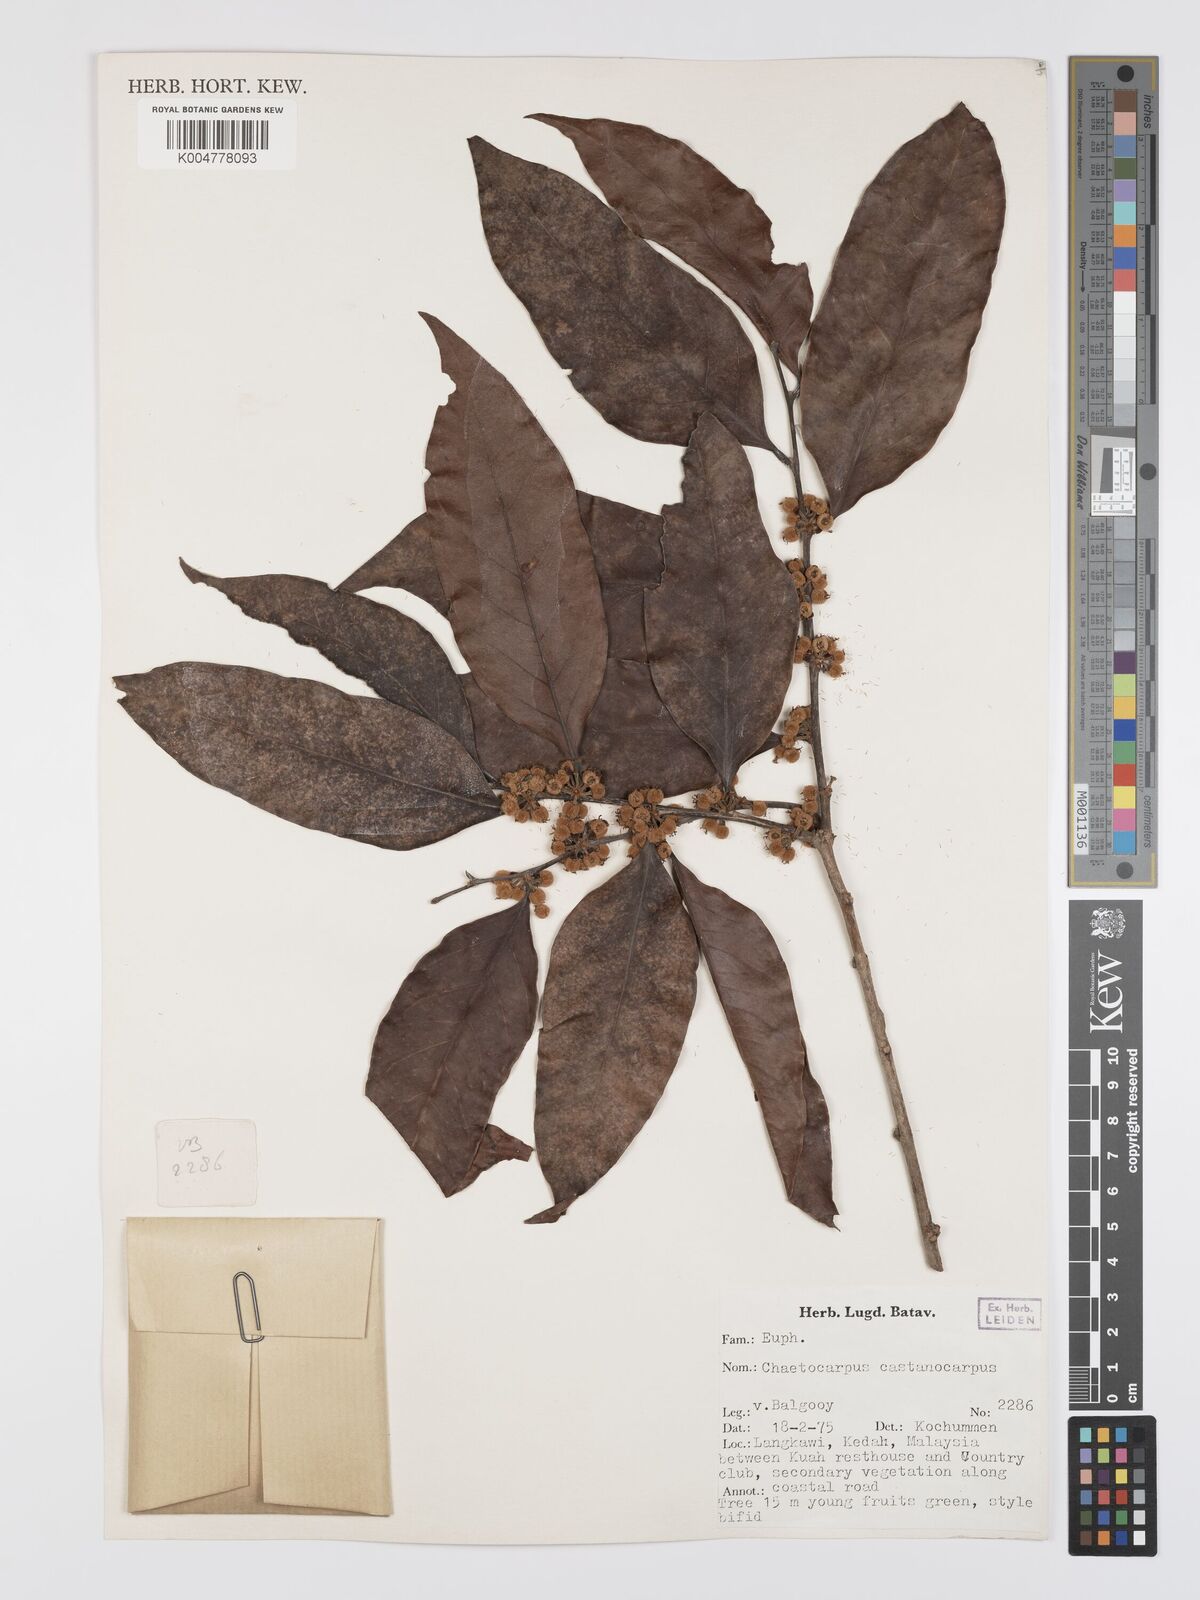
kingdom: Plantae
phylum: Tracheophyta
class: Magnoliopsida
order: Malpighiales
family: Peraceae
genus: Chaetocarpus
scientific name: Chaetocarpus castanocarpus
